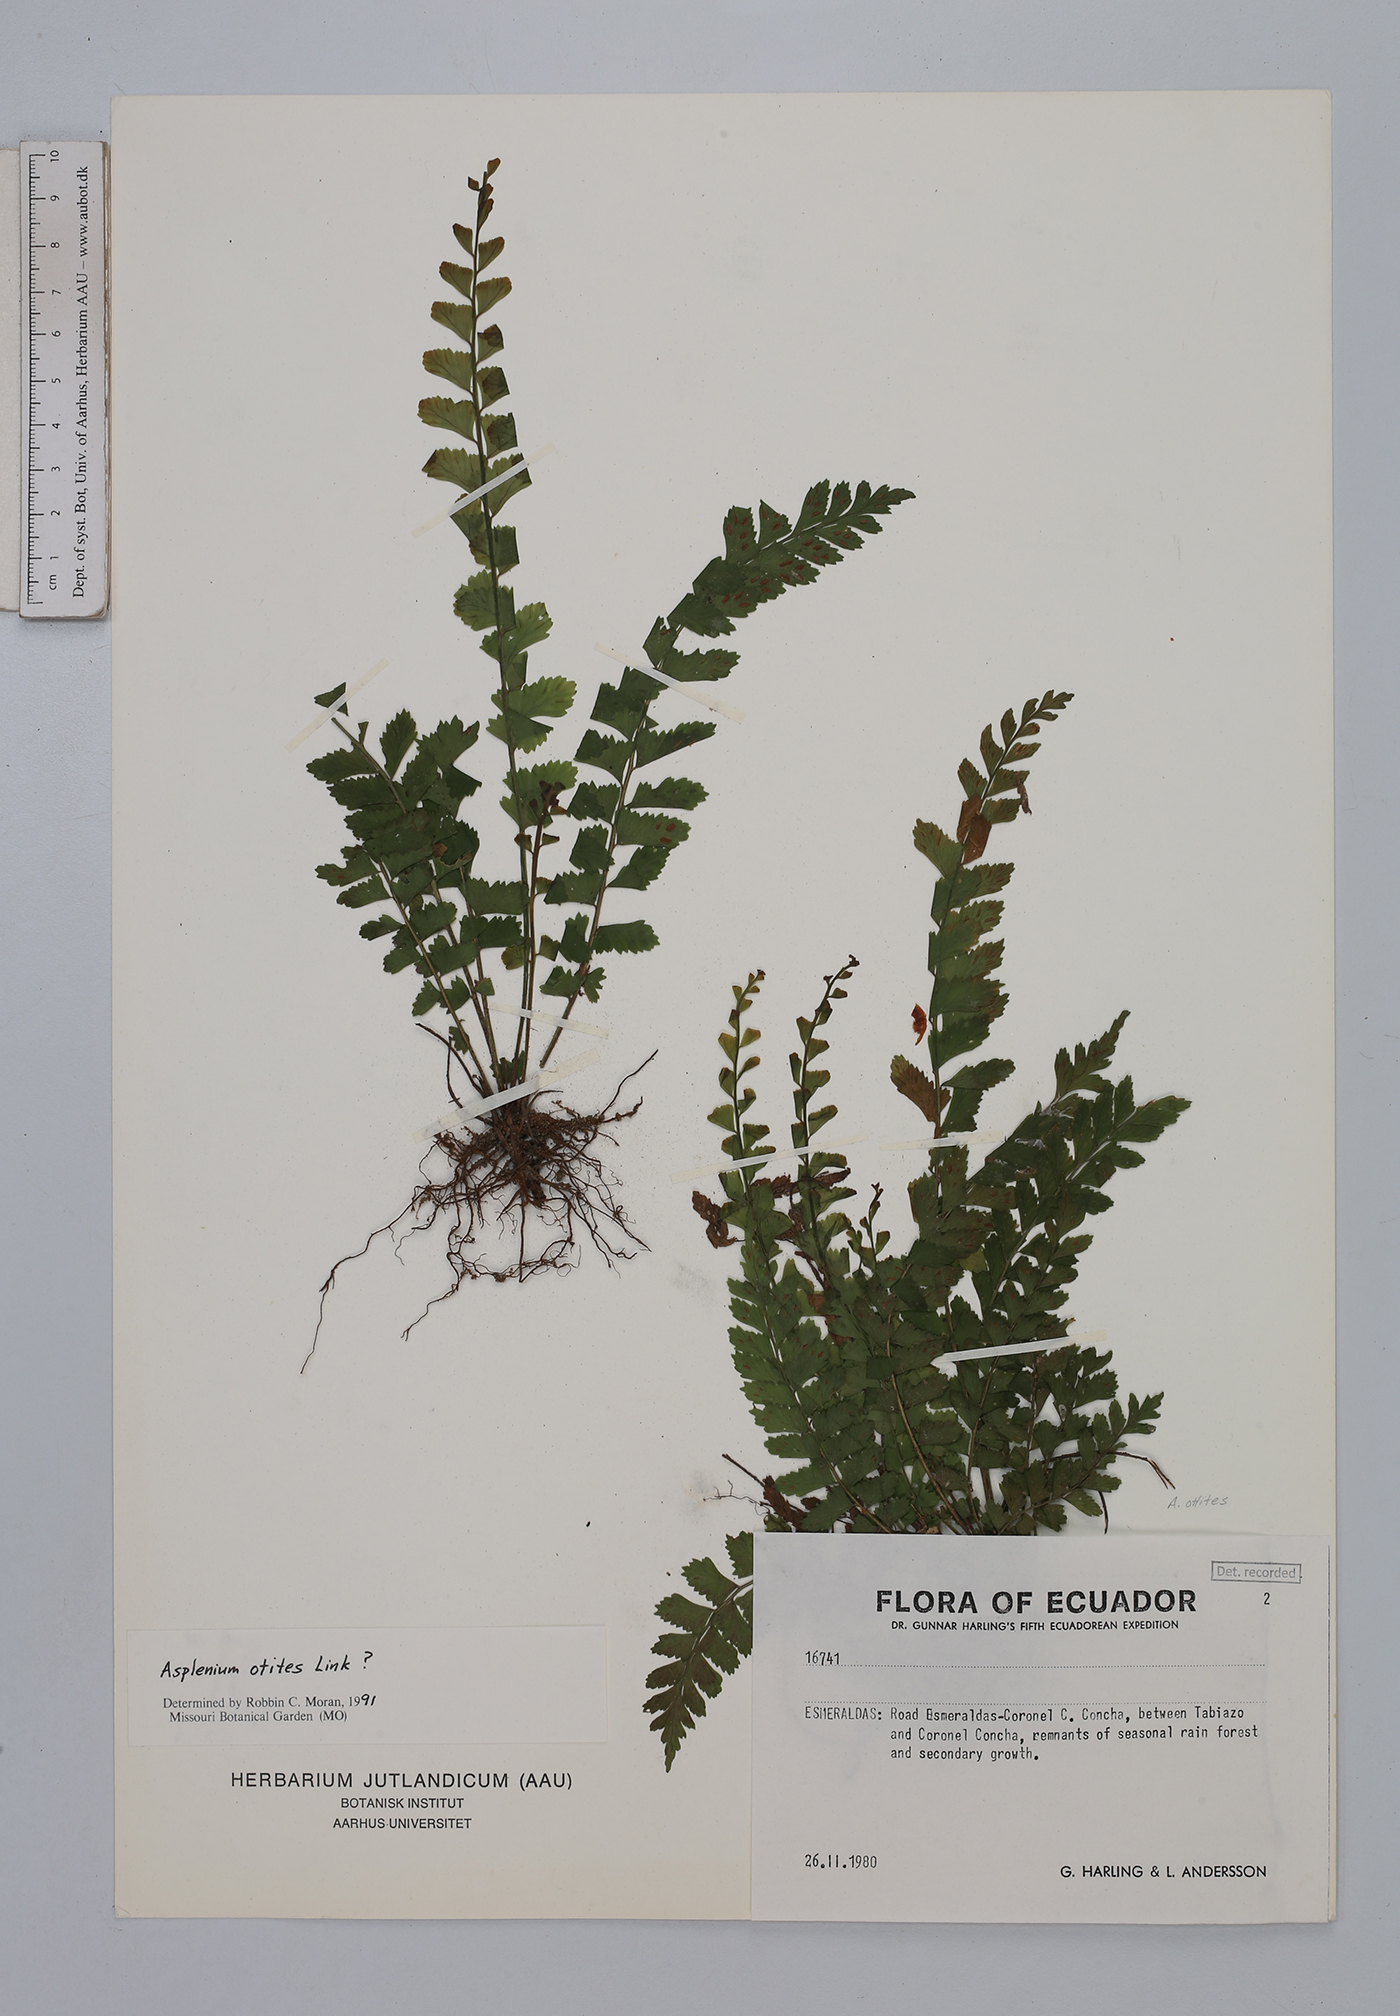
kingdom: Plantae
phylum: Tracheophyta
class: Polypodiopsida
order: Polypodiales
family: Aspleniaceae
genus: Hymenasplenium
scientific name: Hymenasplenium ortegae
